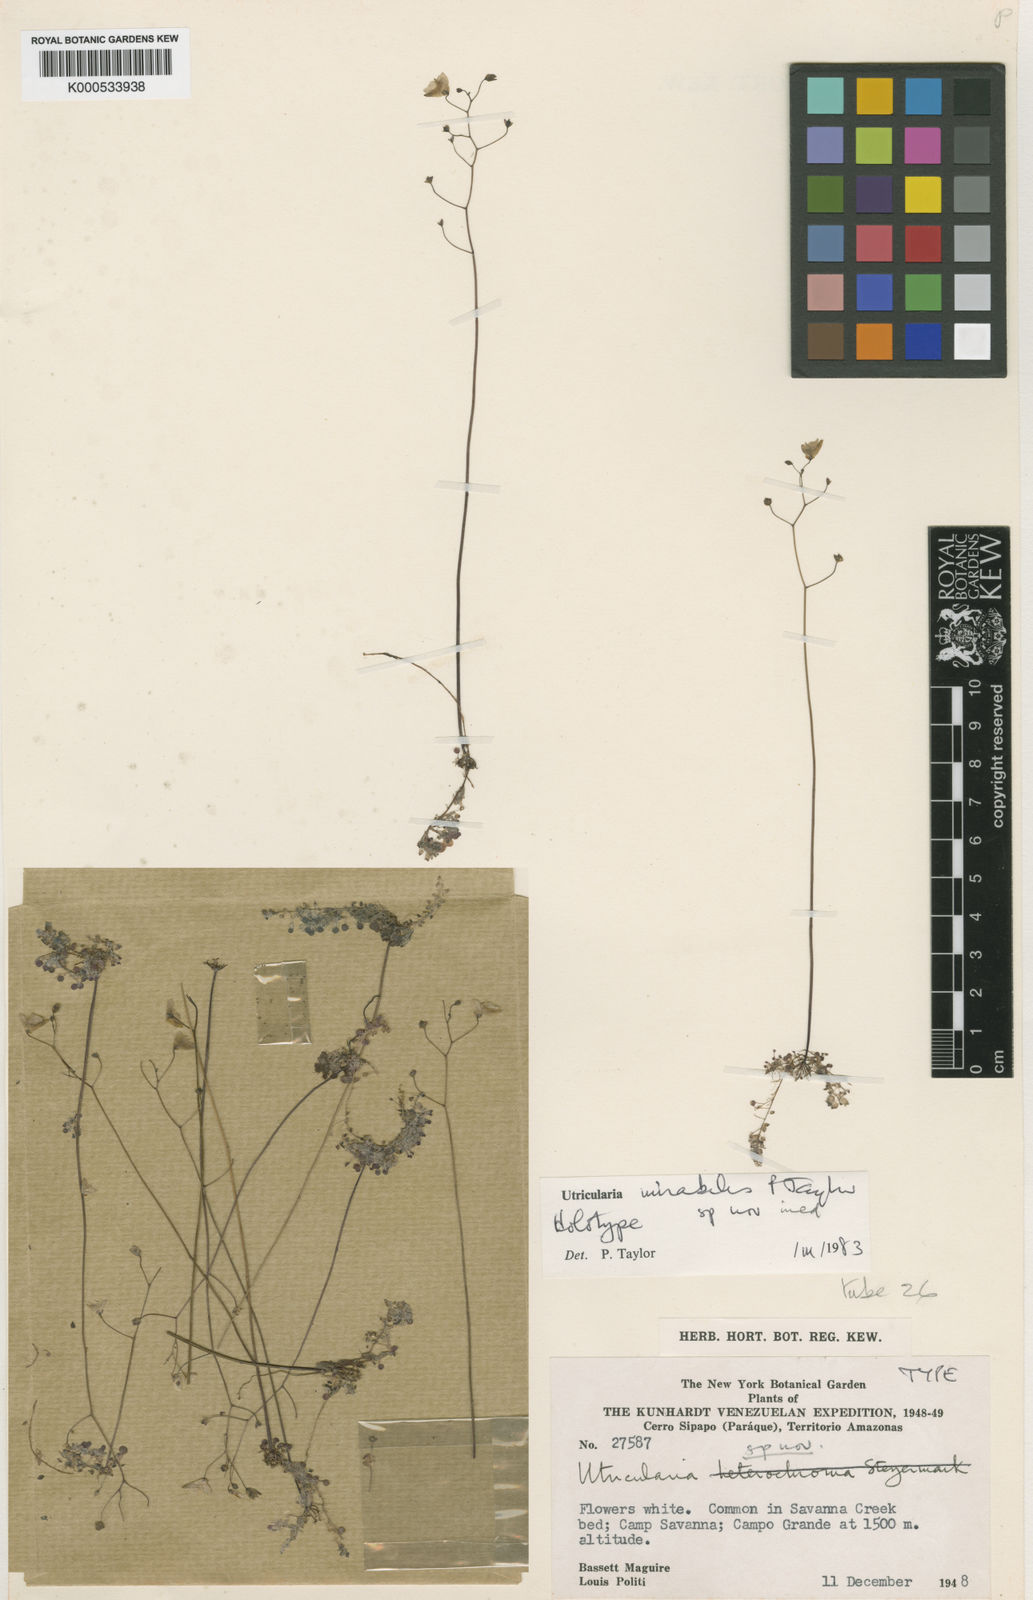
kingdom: Plantae
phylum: Tracheophyta
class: Magnoliopsida
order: Lamiales
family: Lentibulariaceae
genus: Utricularia
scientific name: Utricularia mirabilis
